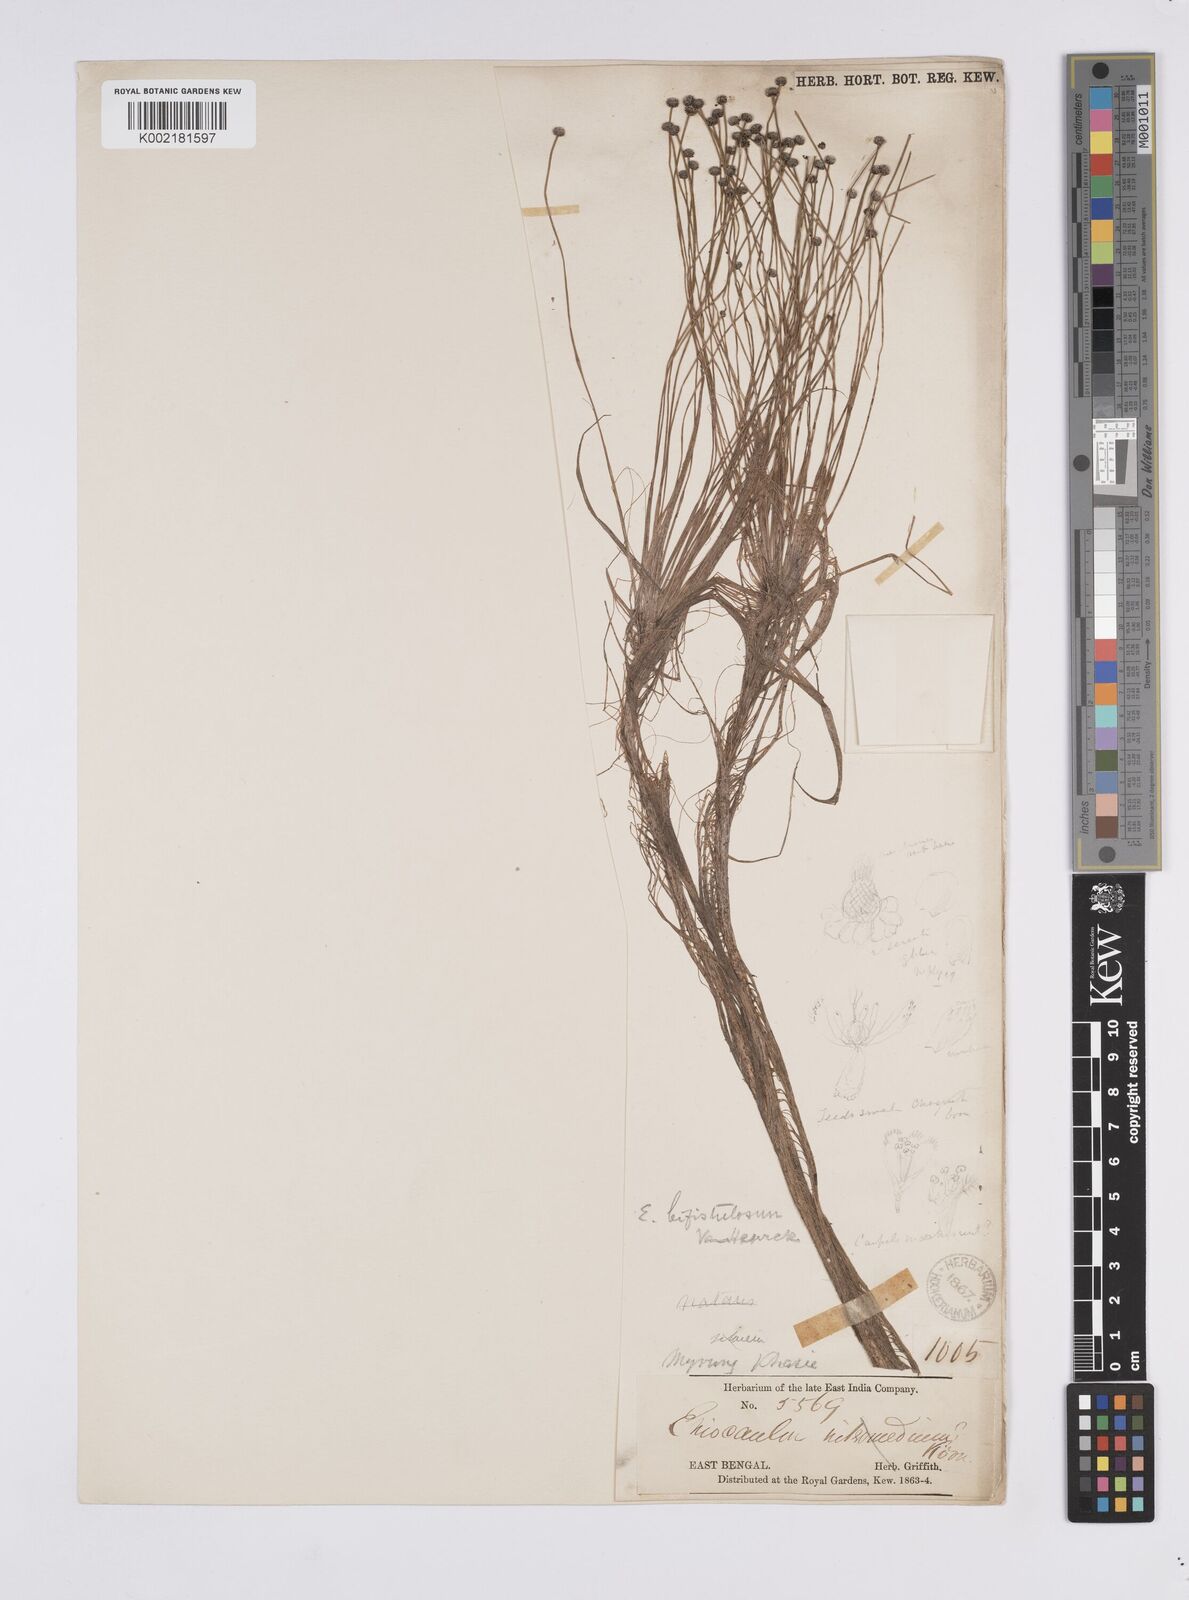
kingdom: Plantae
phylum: Tracheophyta
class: Liliopsida
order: Poales
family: Eriocaulaceae
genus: Eriocaulon
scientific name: Eriocaulon setaceum
